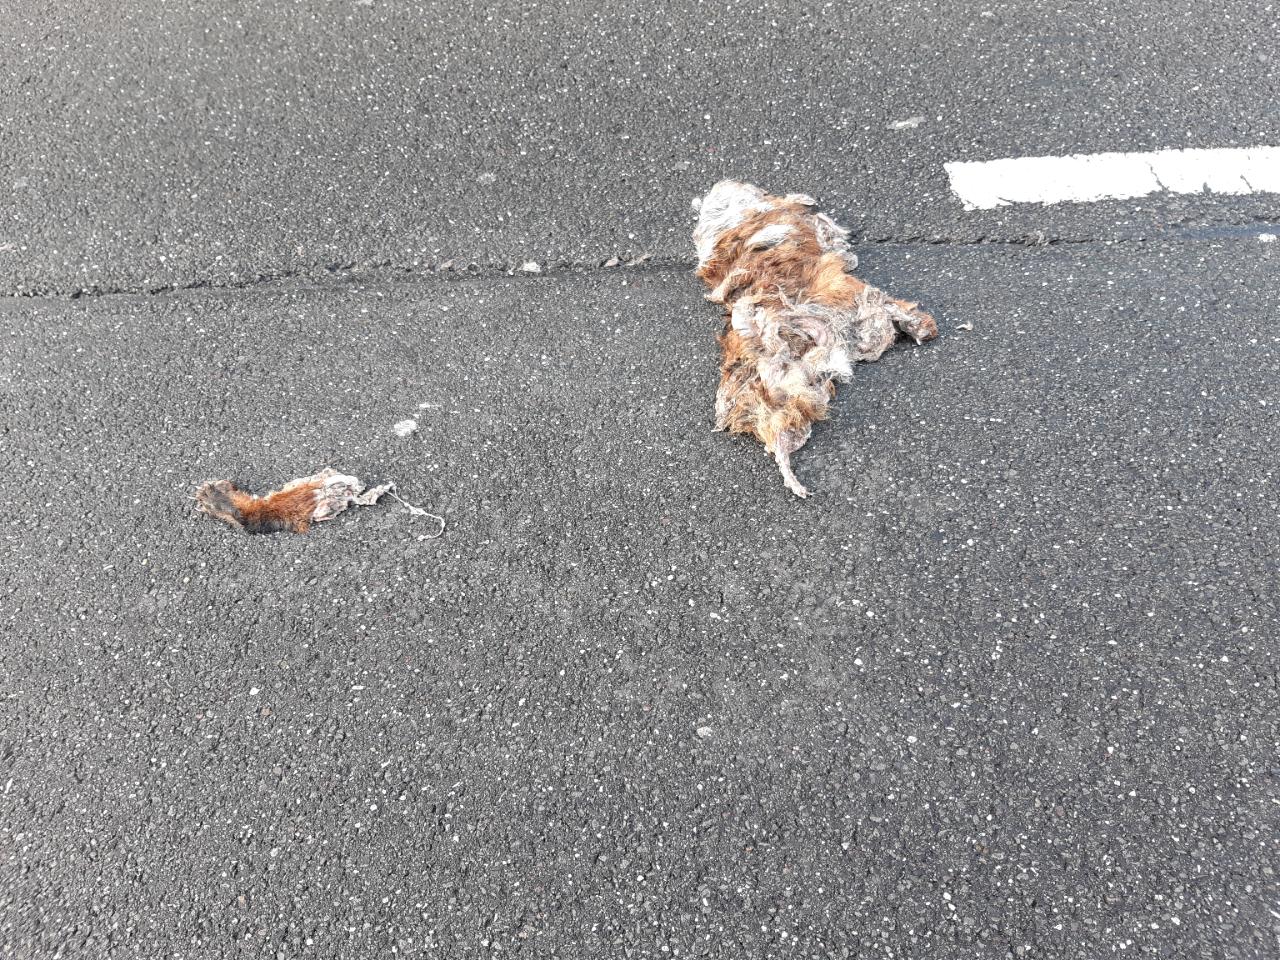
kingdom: Animalia
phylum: Chordata
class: Mammalia
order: Carnivora
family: Canidae
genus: Vulpes
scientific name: Vulpes vulpes
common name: Red fox
